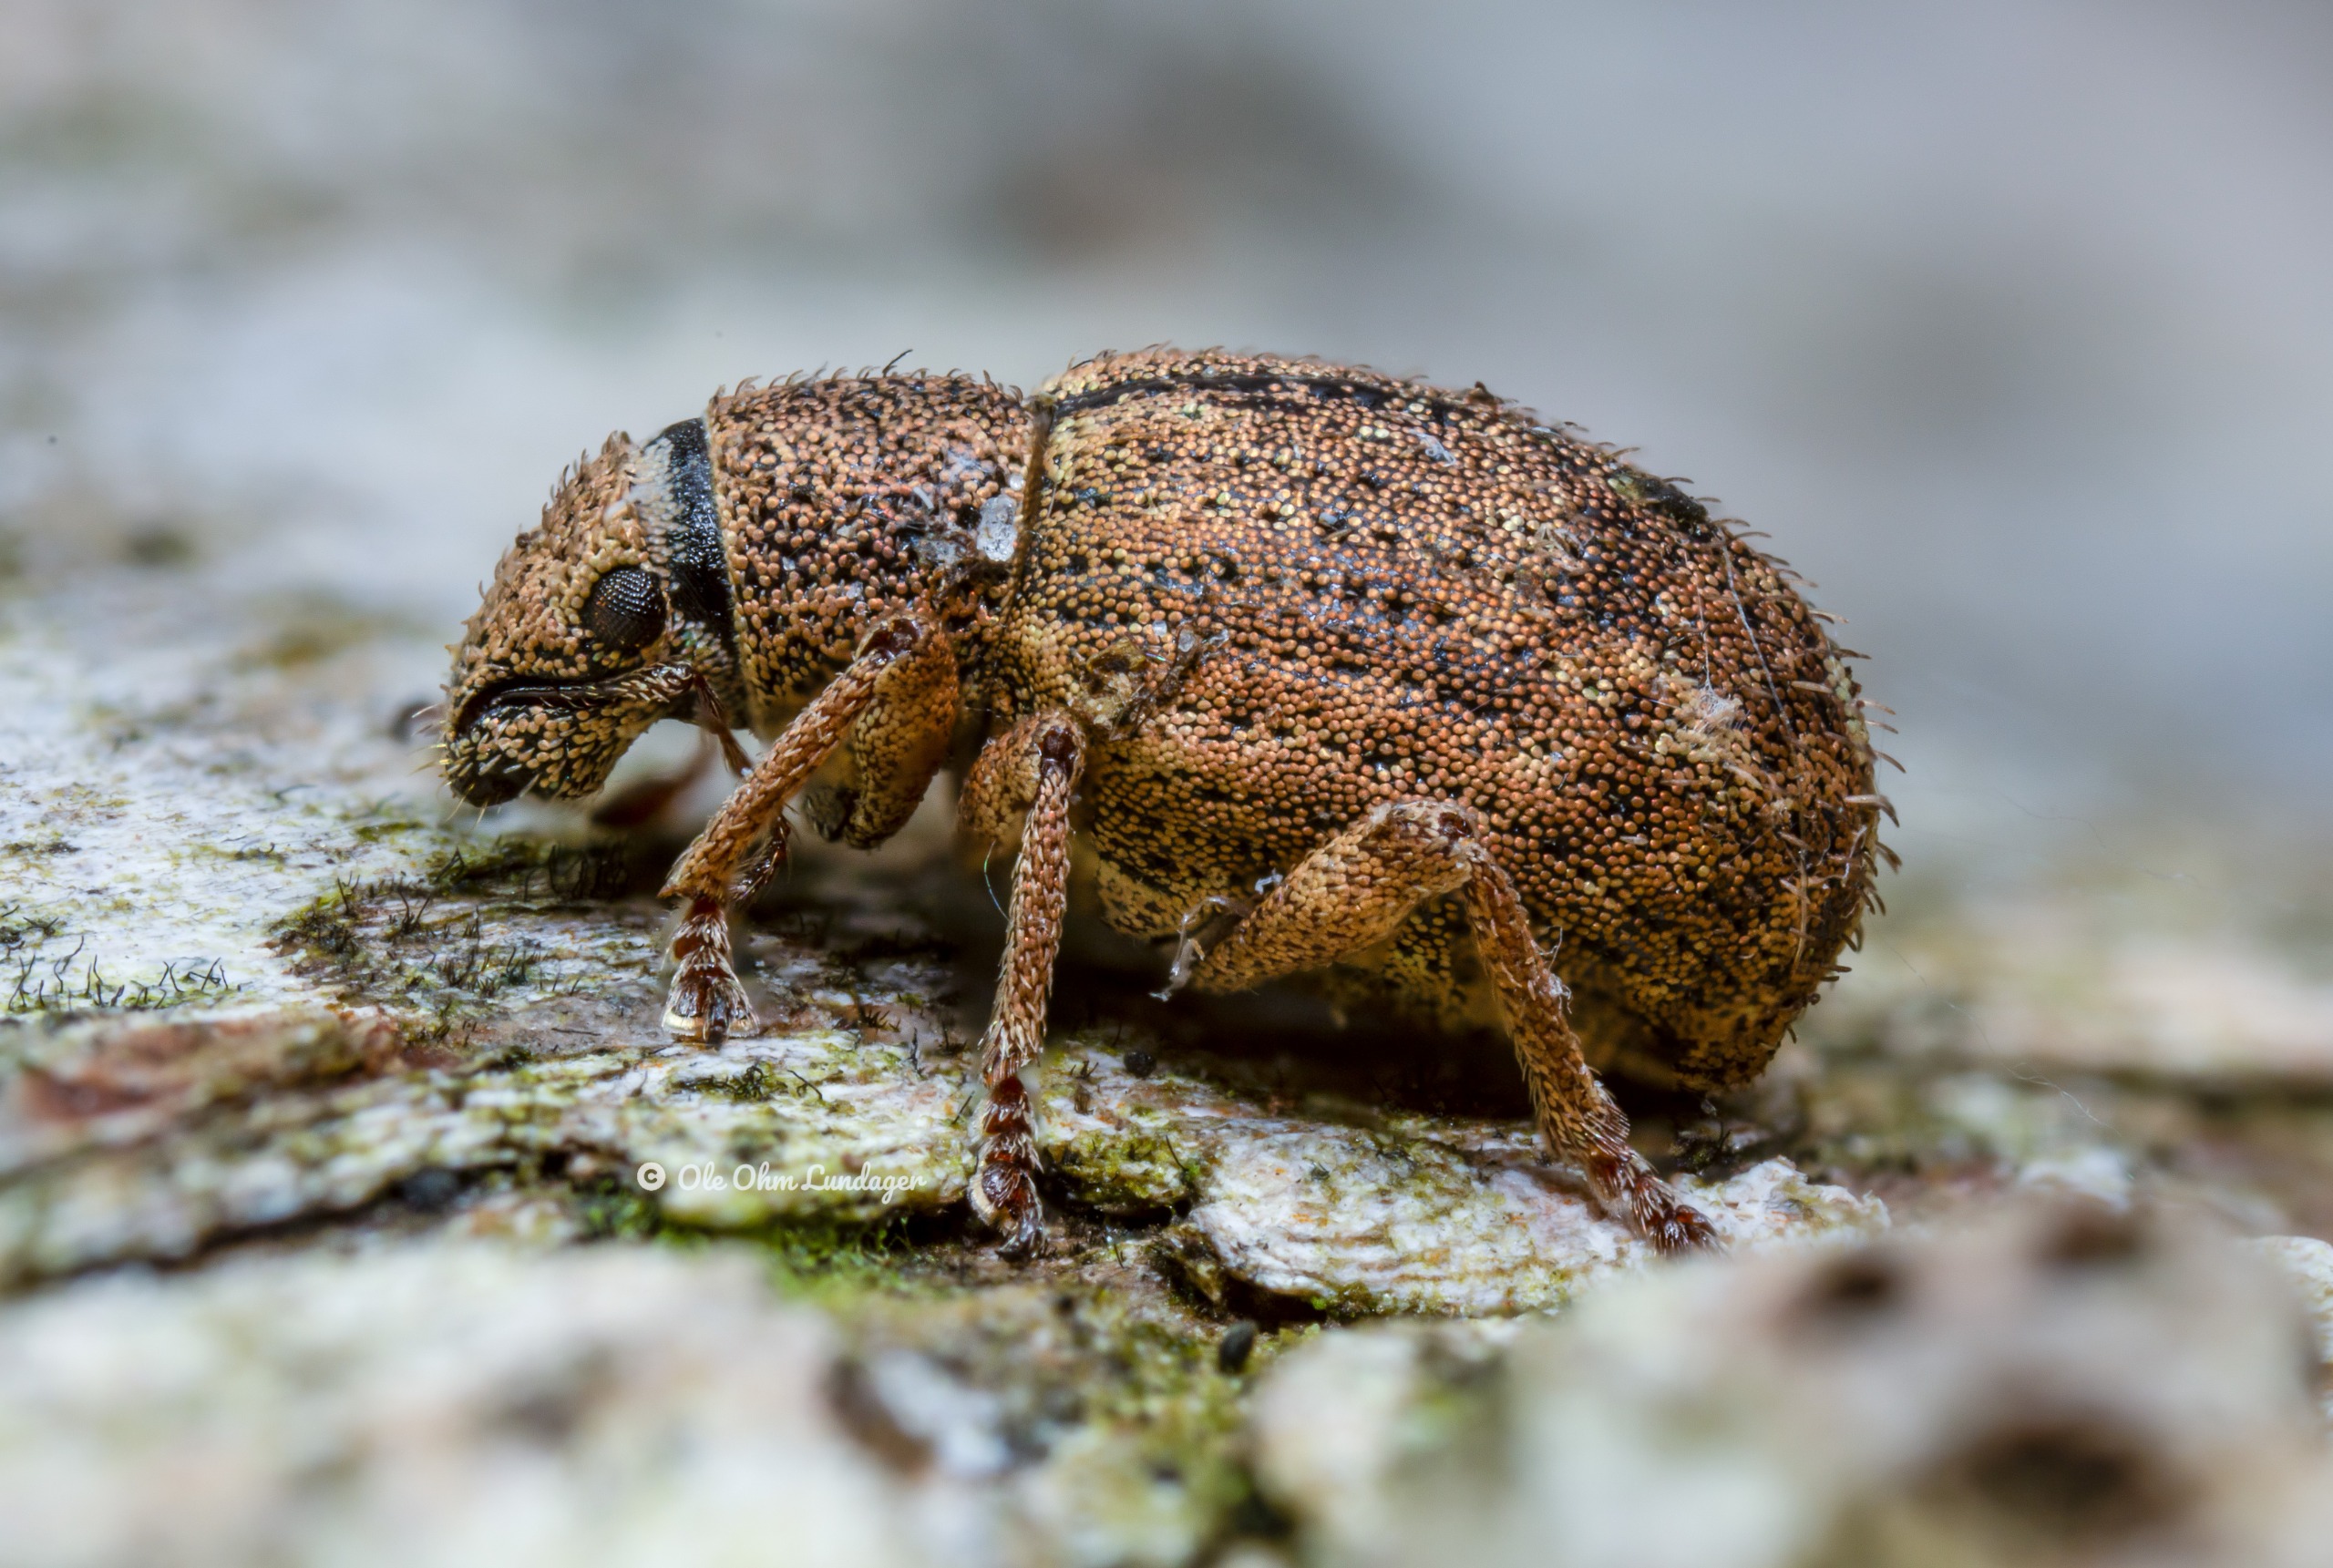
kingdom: Animalia
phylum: Arthropoda
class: Insecta
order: Coleoptera
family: Curculionidae
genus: Strophosoma
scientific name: Strophosoma melanogrammum
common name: Stribet gråsnude
